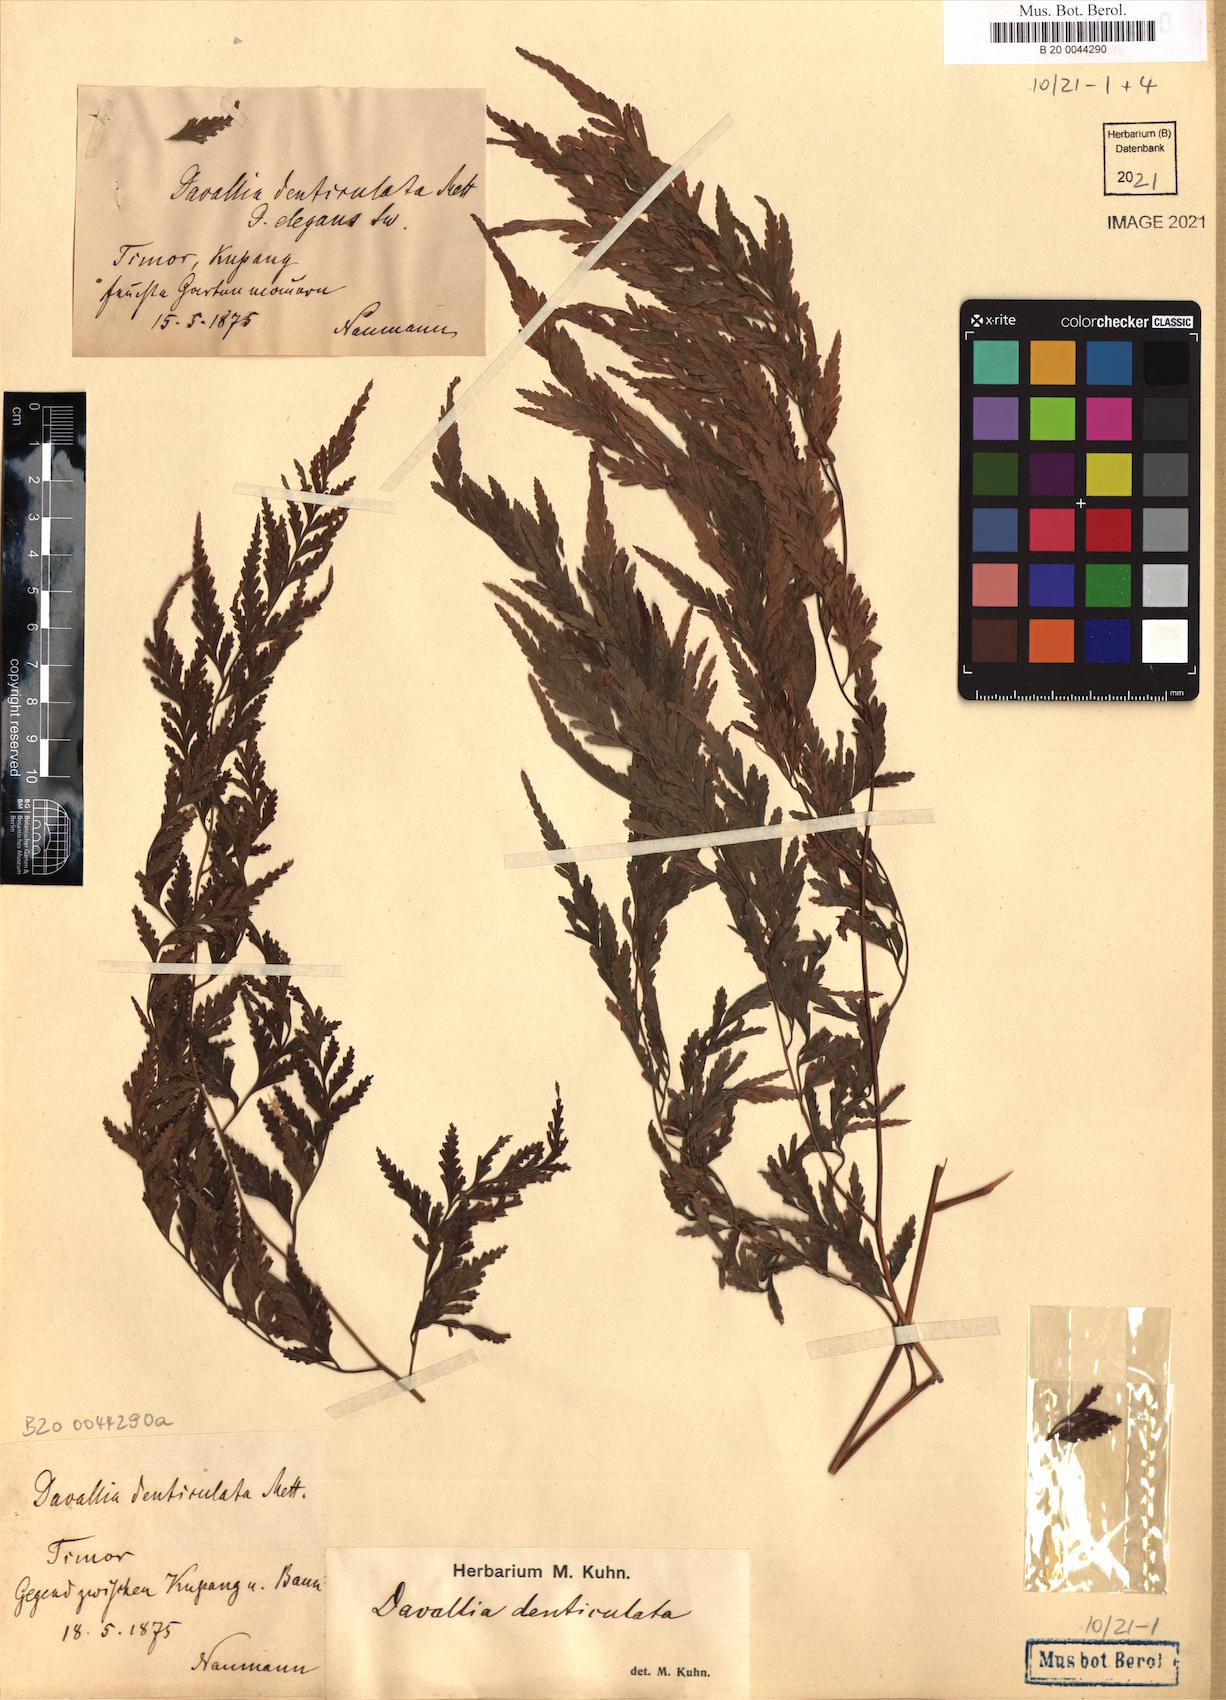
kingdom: Plantae
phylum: Tracheophyta
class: Polypodiopsida
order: Polypodiales
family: Davalliaceae
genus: Davallia
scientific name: Davallia denticulata
